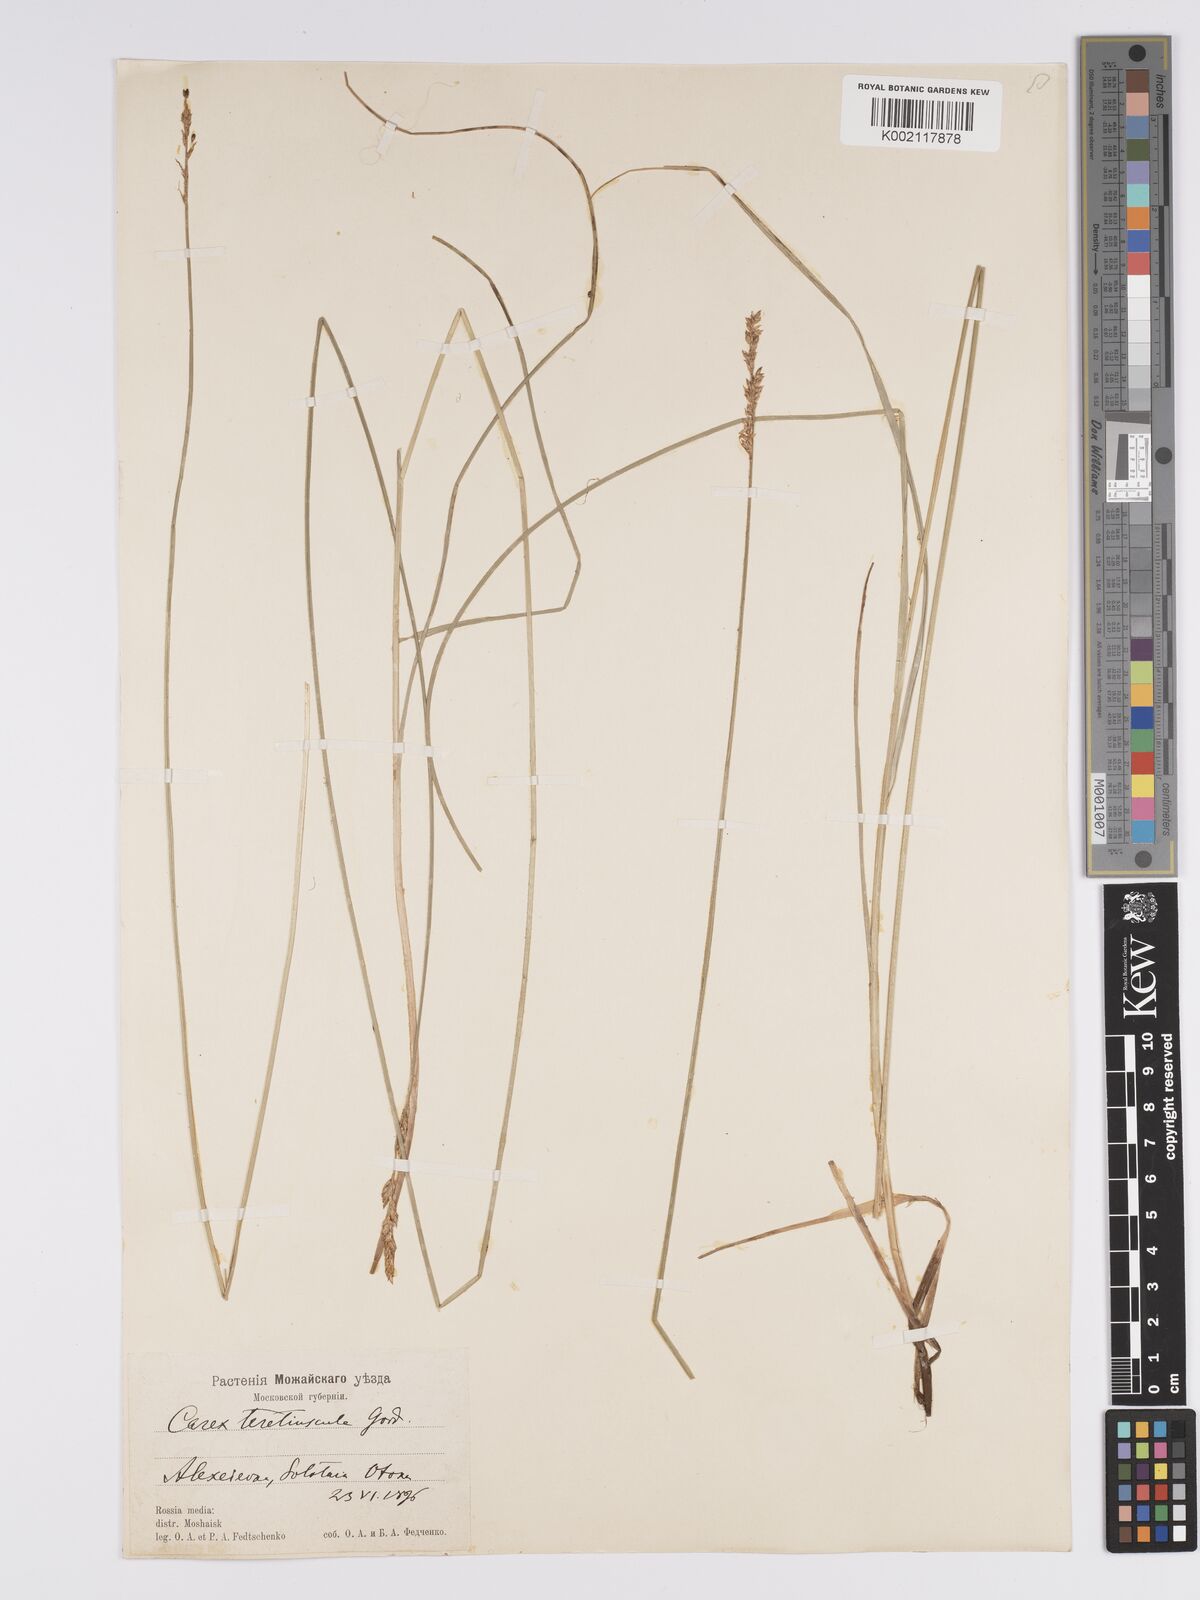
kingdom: Plantae
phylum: Tracheophyta
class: Liliopsida
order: Poales
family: Cyperaceae
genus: Carex
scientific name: Carex diandra
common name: Lesser tussock-sedge
